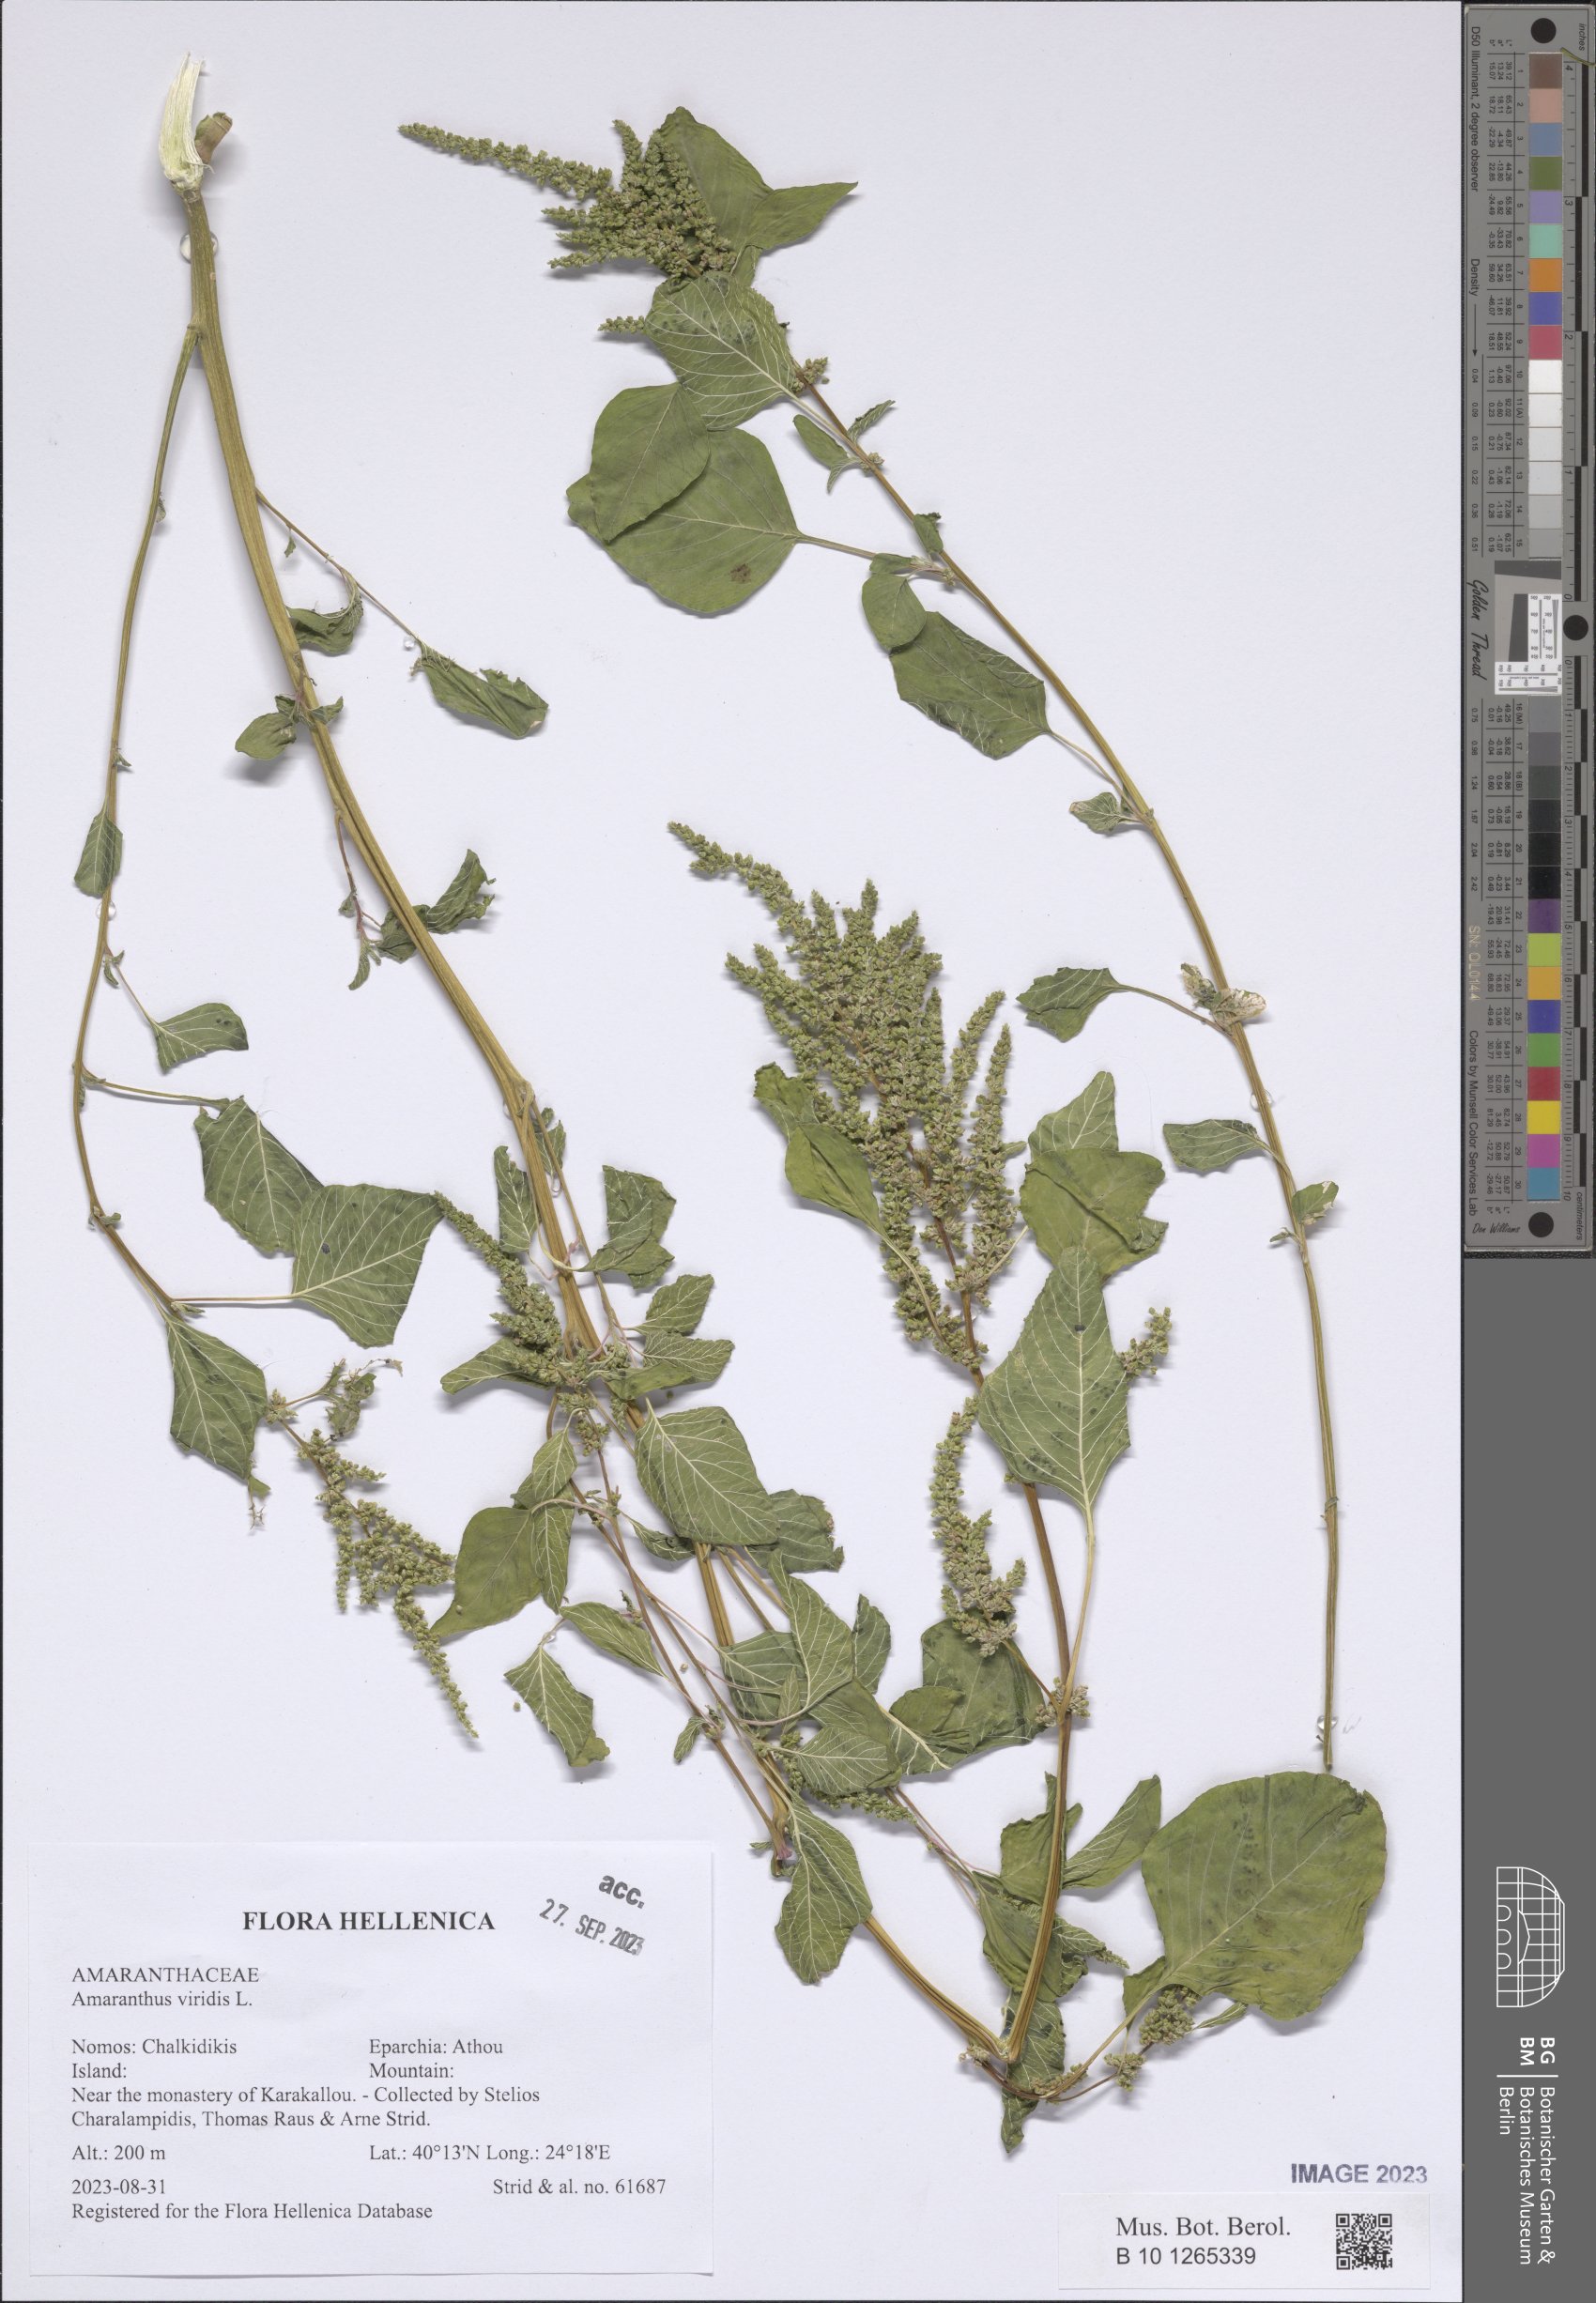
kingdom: Plantae
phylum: Tracheophyta
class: Magnoliopsida
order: Caryophyllales
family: Amaranthaceae
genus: Amaranthus
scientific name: Amaranthus viridis
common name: Slender amaranth
